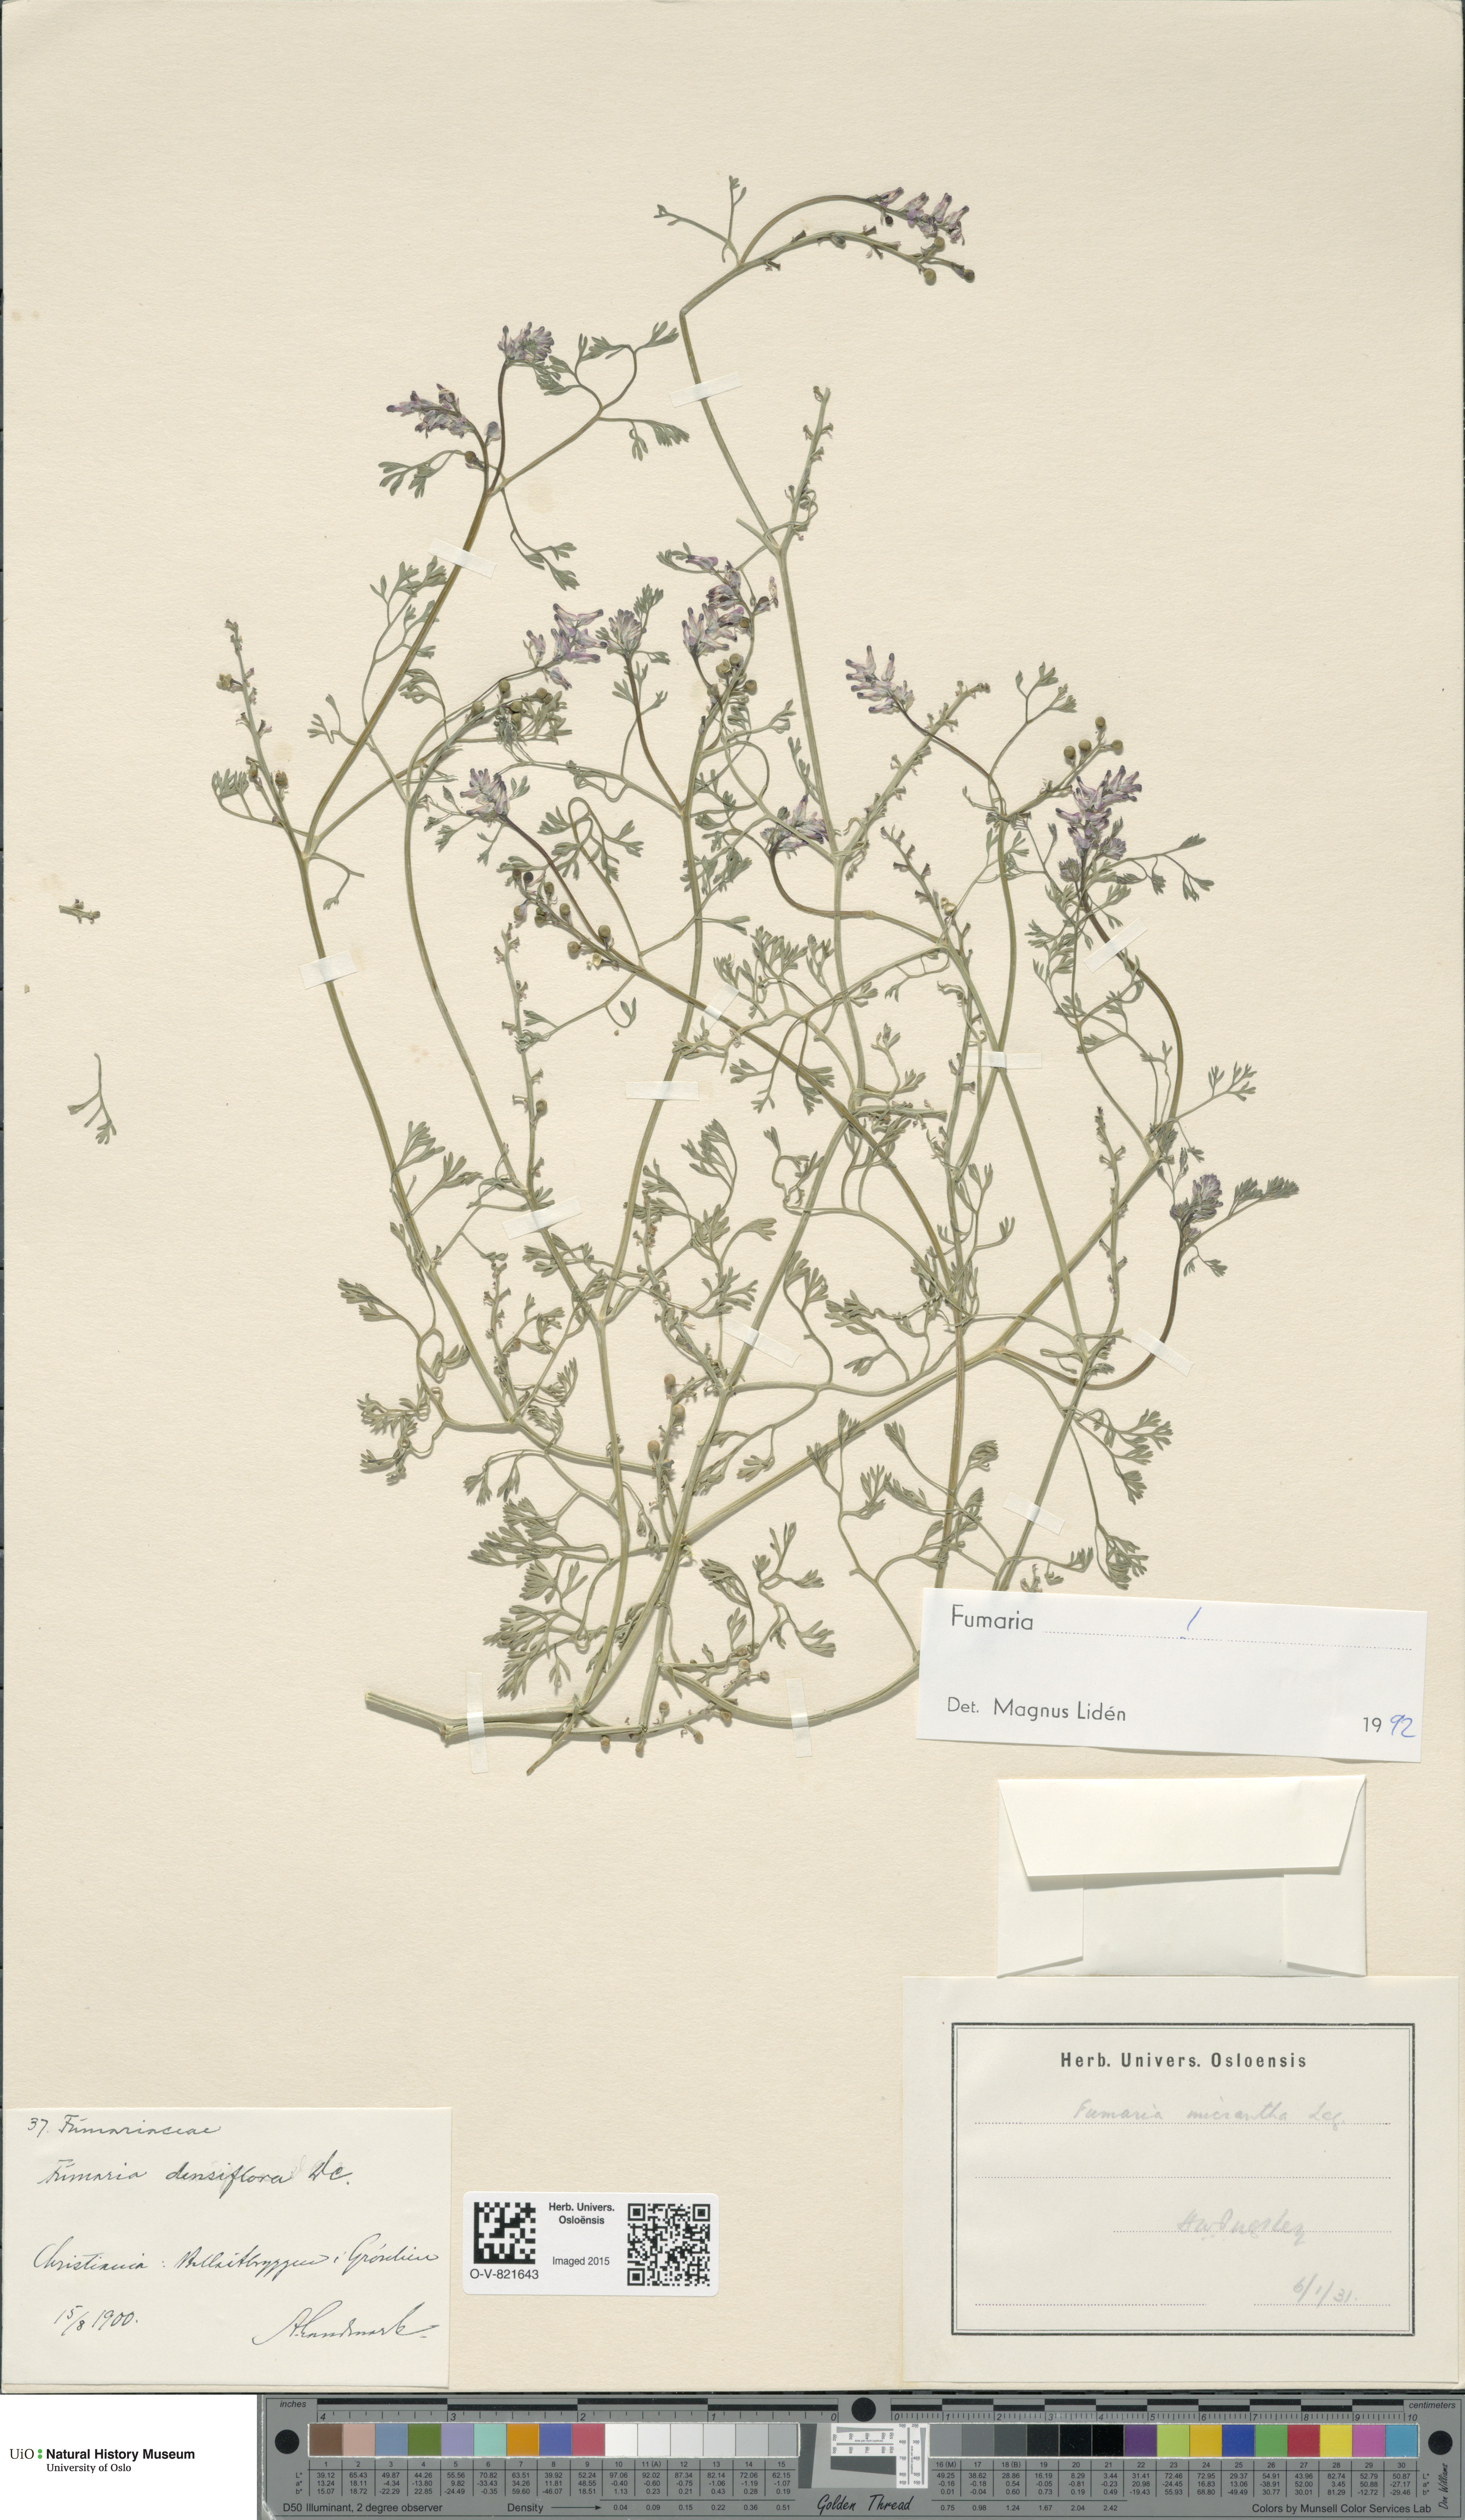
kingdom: Plantae
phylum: Tracheophyta
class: Magnoliopsida
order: Ranunculales
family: Papaveraceae
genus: Fumaria
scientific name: Fumaria densiflora
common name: Dense-flowered fumitory
